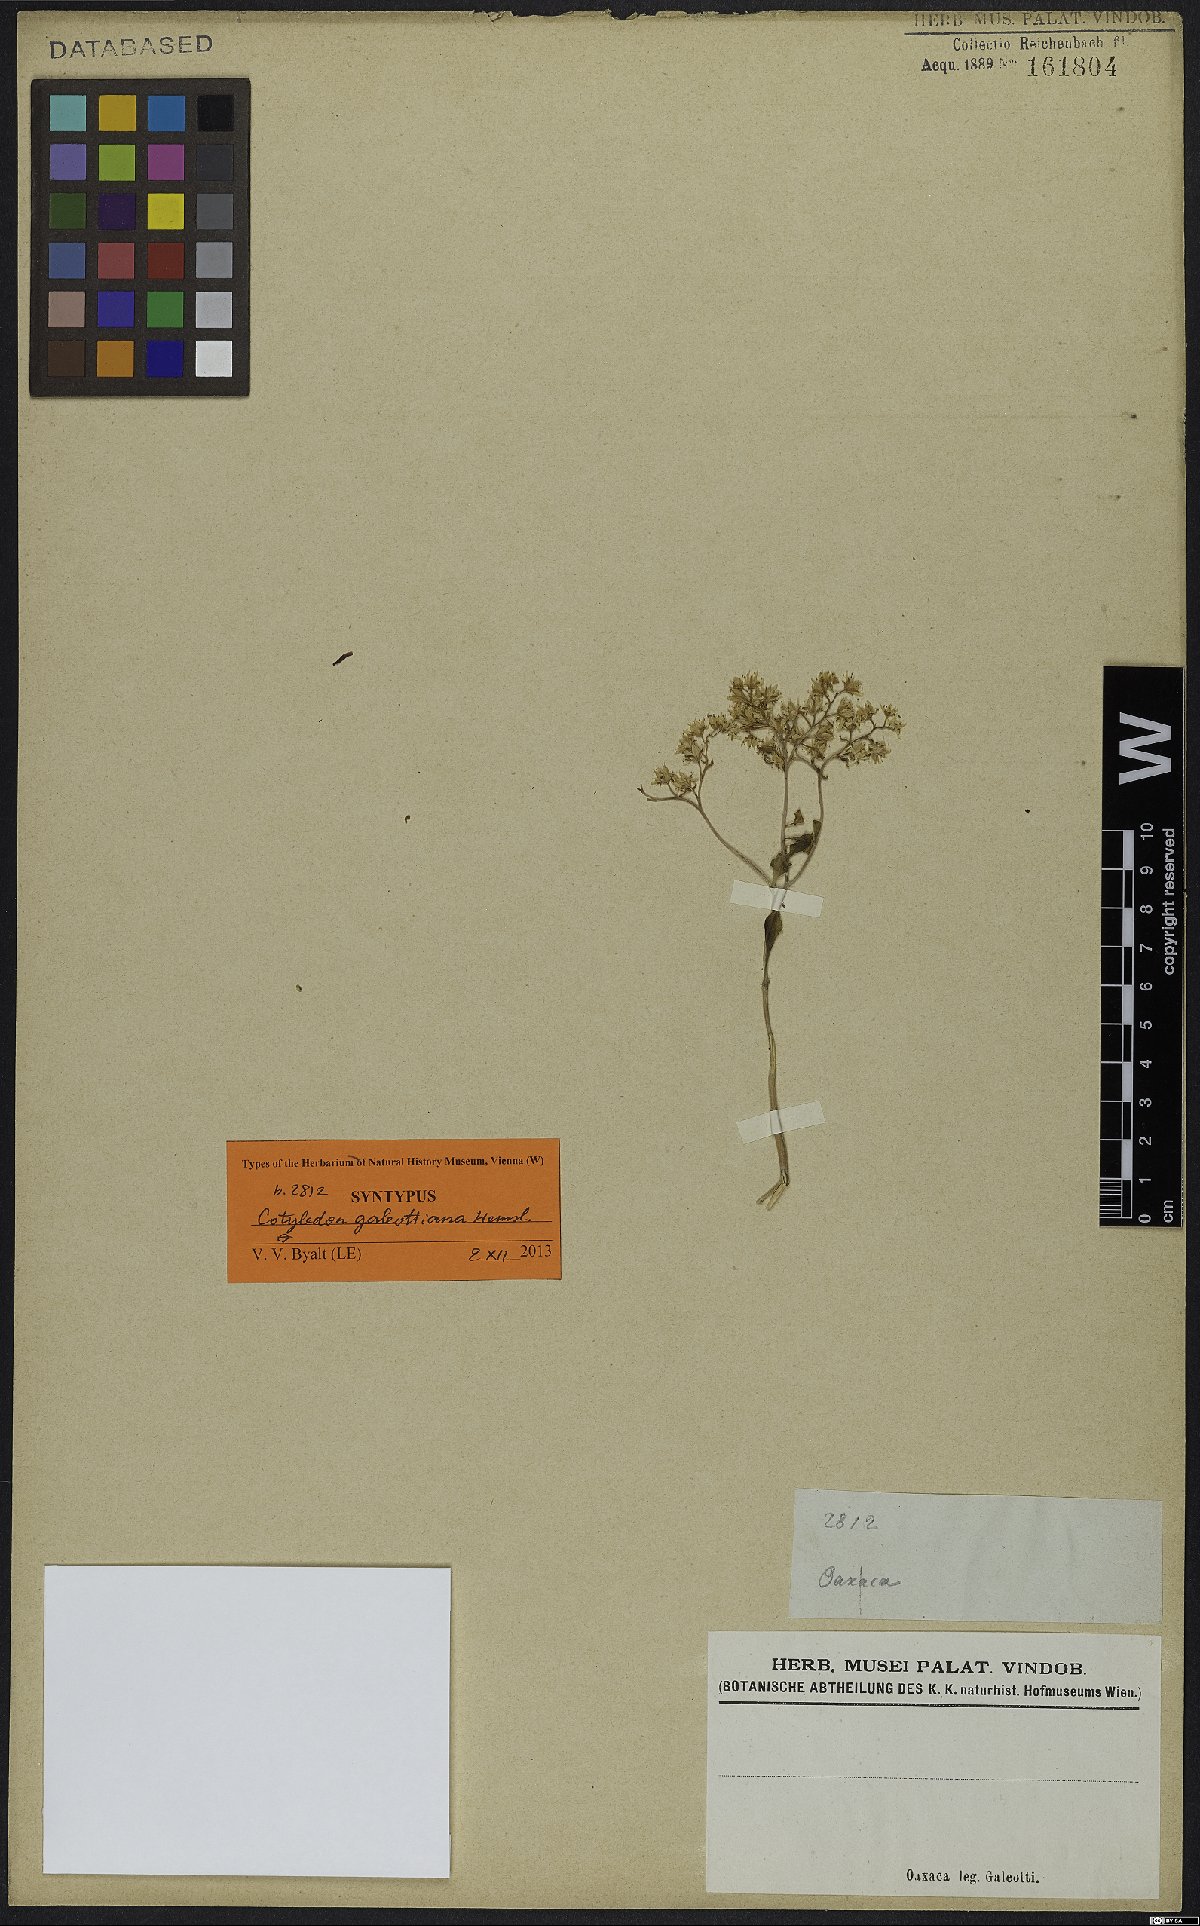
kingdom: Plantae
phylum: Tracheophyta
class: Magnoliopsida
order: Saxifragales
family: Crassulaceae
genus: Sedum
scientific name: Sedum batesii
